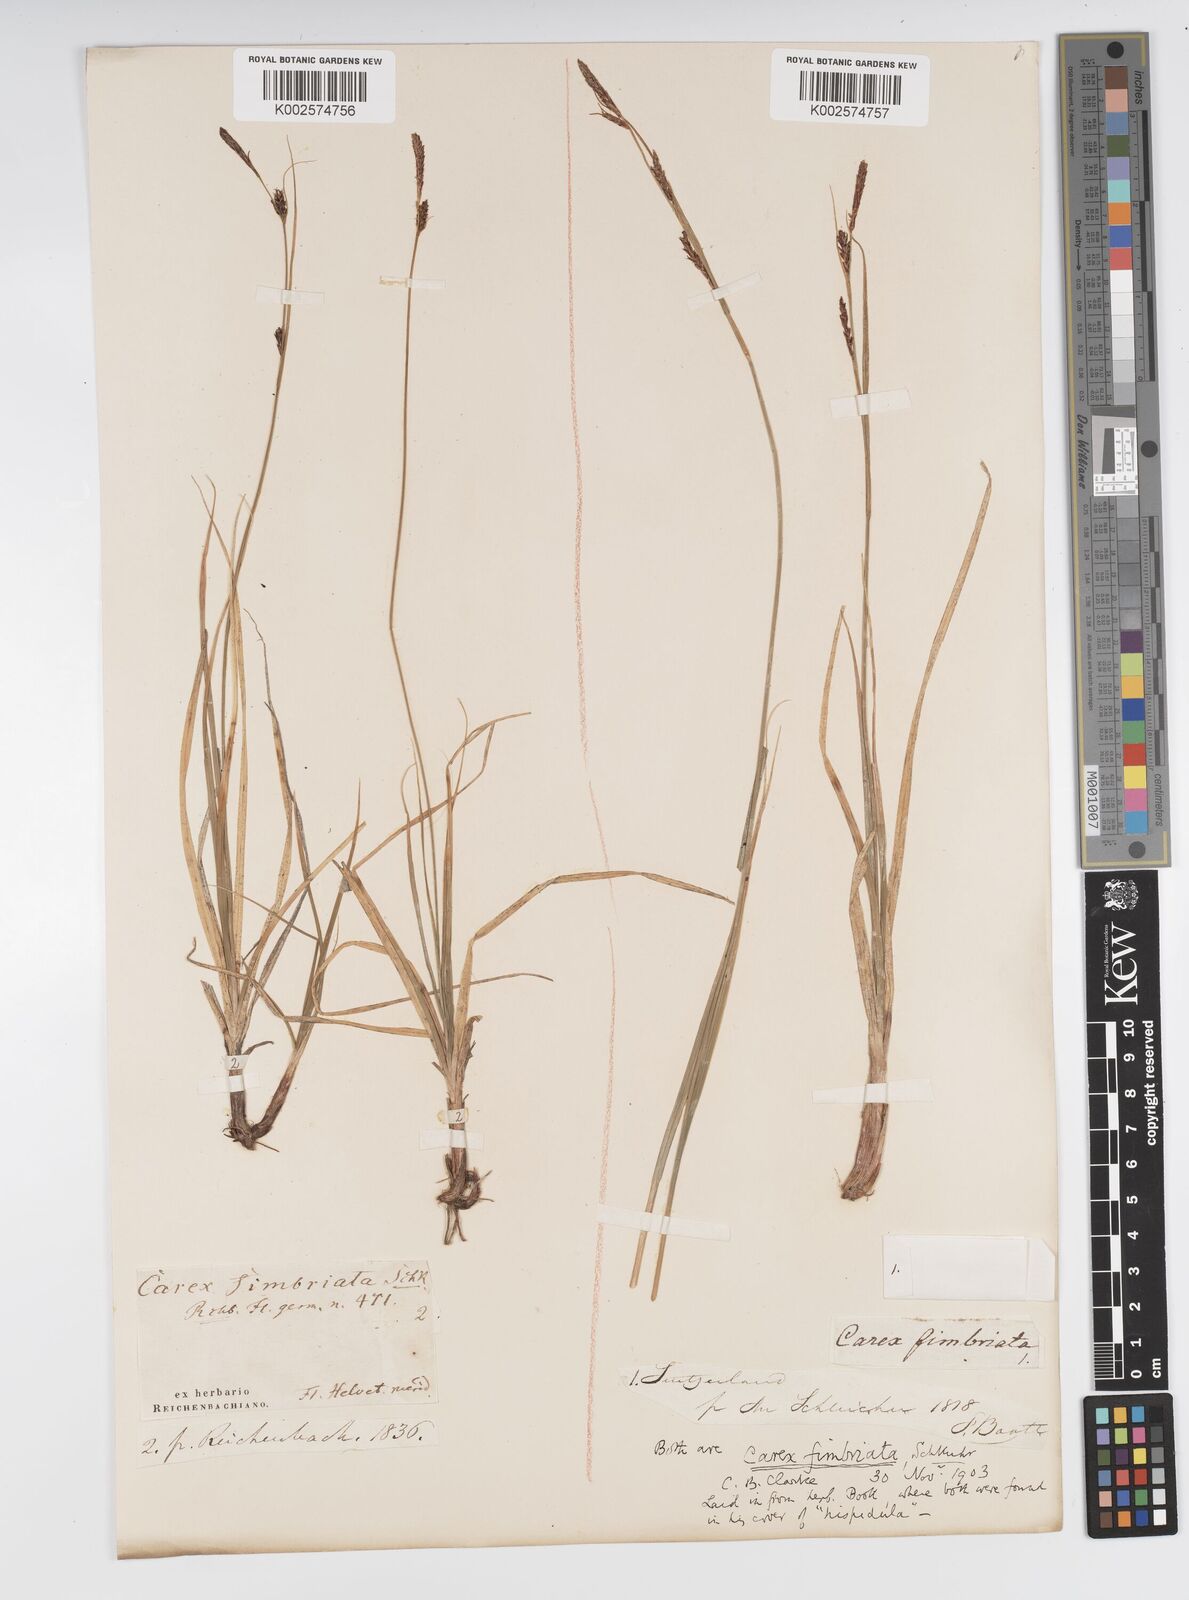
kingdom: Plantae
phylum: Tracheophyta
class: Liliopsida
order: Poales
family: Cyperaceae
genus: Carex
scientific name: Carex fimbriata
